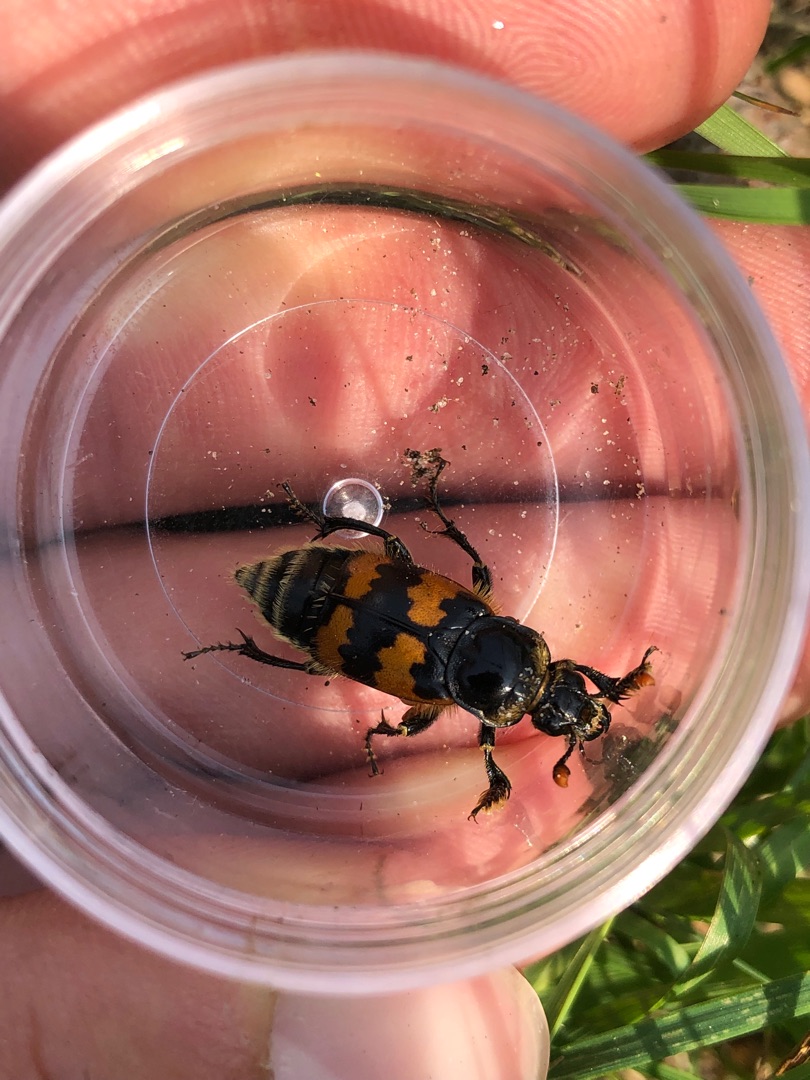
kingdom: Animalia
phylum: Arthropoda
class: Insecta
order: Coleoptera
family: Staphylinidae
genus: Nicrophorus
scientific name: Nicrophorus vespillo
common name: Krumbenet ådselgraver
